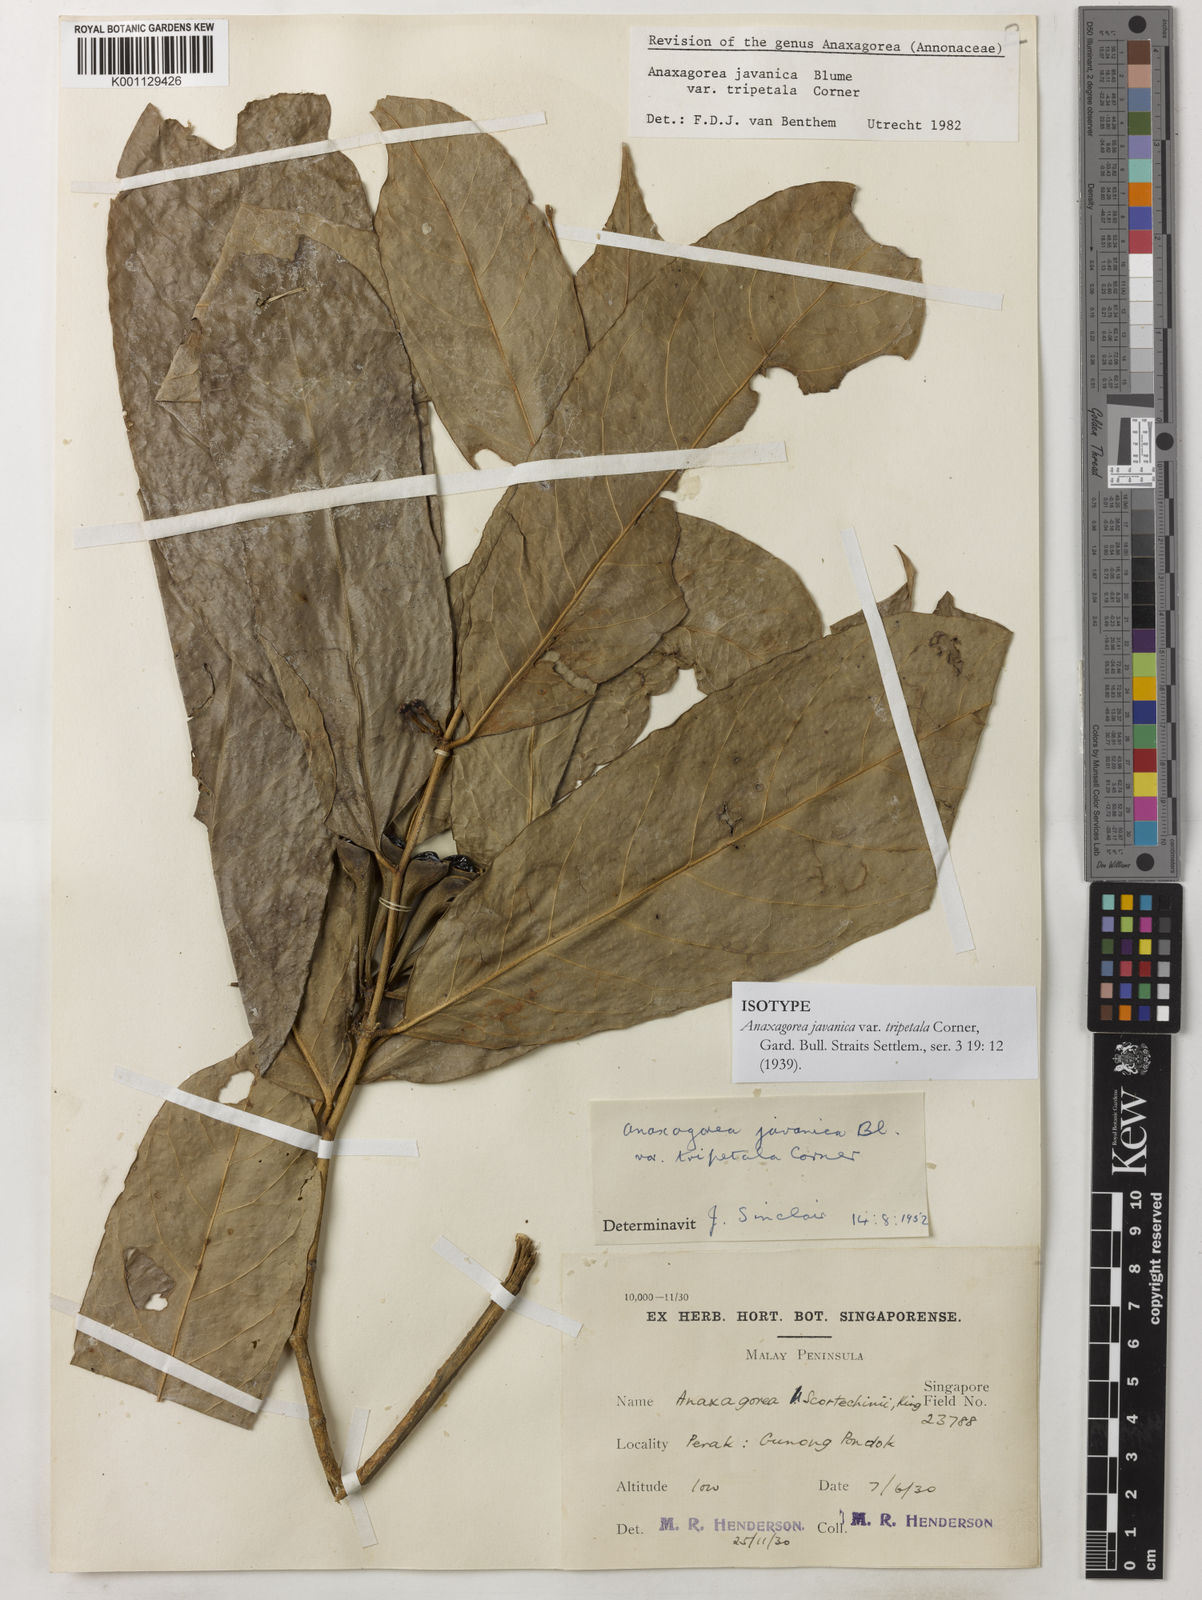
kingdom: Plantae
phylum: Tracheophyta
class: Magnoliopsida
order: Magnoliales
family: Annonaceae
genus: Anaxagorea
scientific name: Anaxagorea javanica
